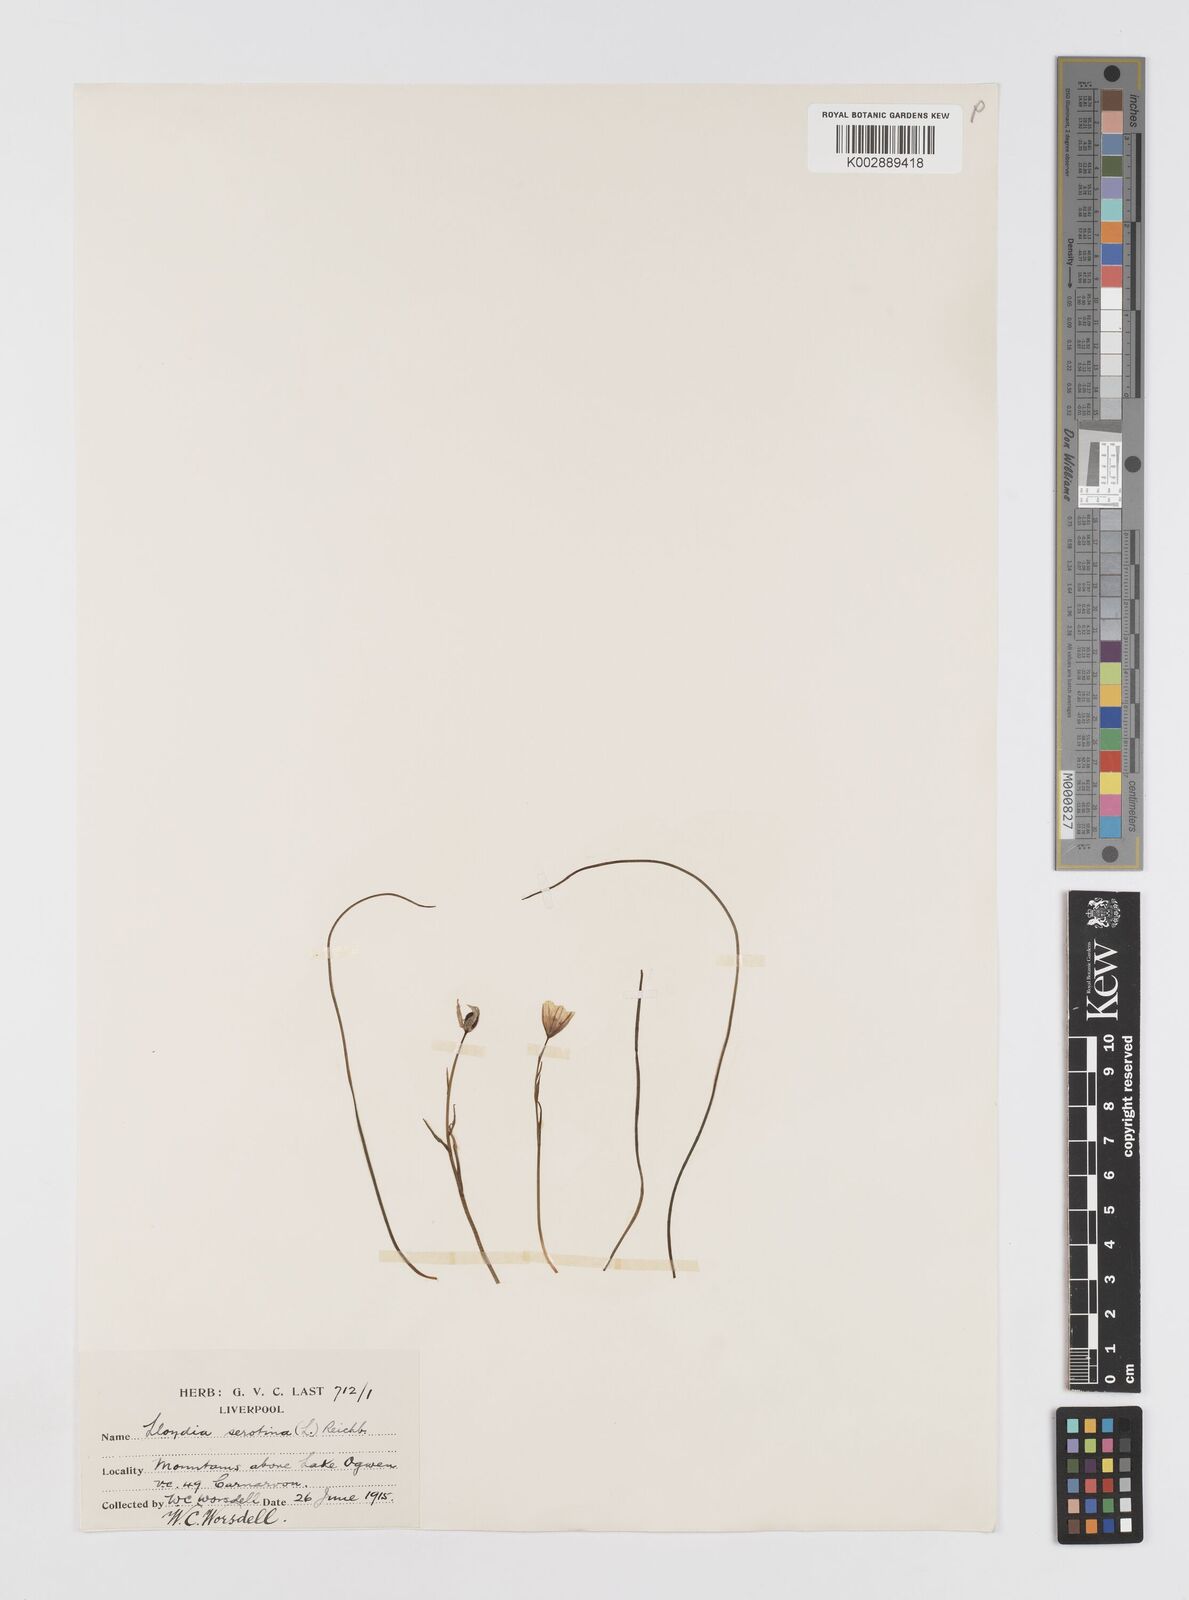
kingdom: Plantae
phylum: Tracheophyta
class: Liliopsida
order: Liliales
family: Liliaceae
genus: Gagea
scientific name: Gagea
